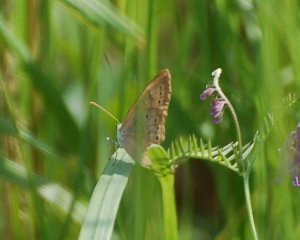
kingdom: Animalia
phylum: Arthropoda
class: Insecta
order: Lepidoptera
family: Nymphalidae
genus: Lethe
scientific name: Lethe eurydice
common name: Eyed Brown
